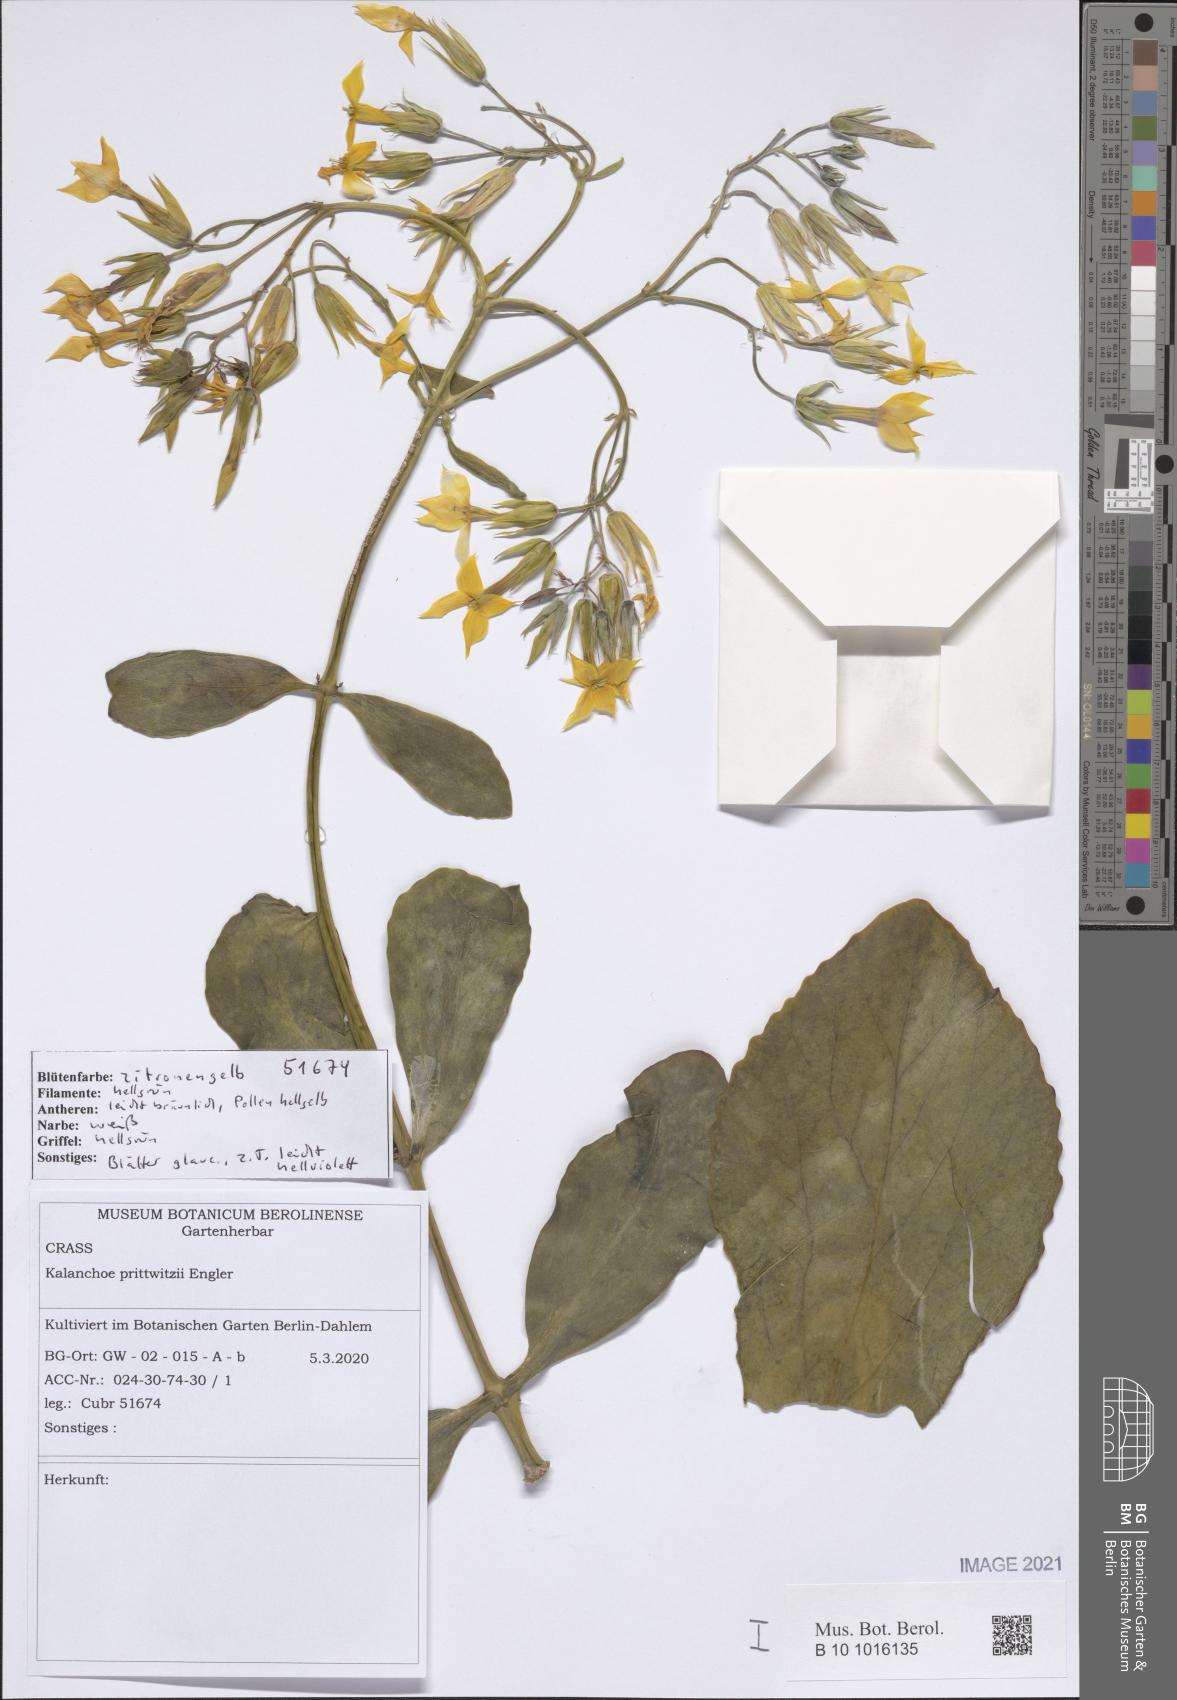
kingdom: Plantae
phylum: Tracheophyta
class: Magnoliopsida
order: Saxifragales
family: Crassulaceae
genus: Kalanchoe
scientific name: Kalanchoe prittwitzii
